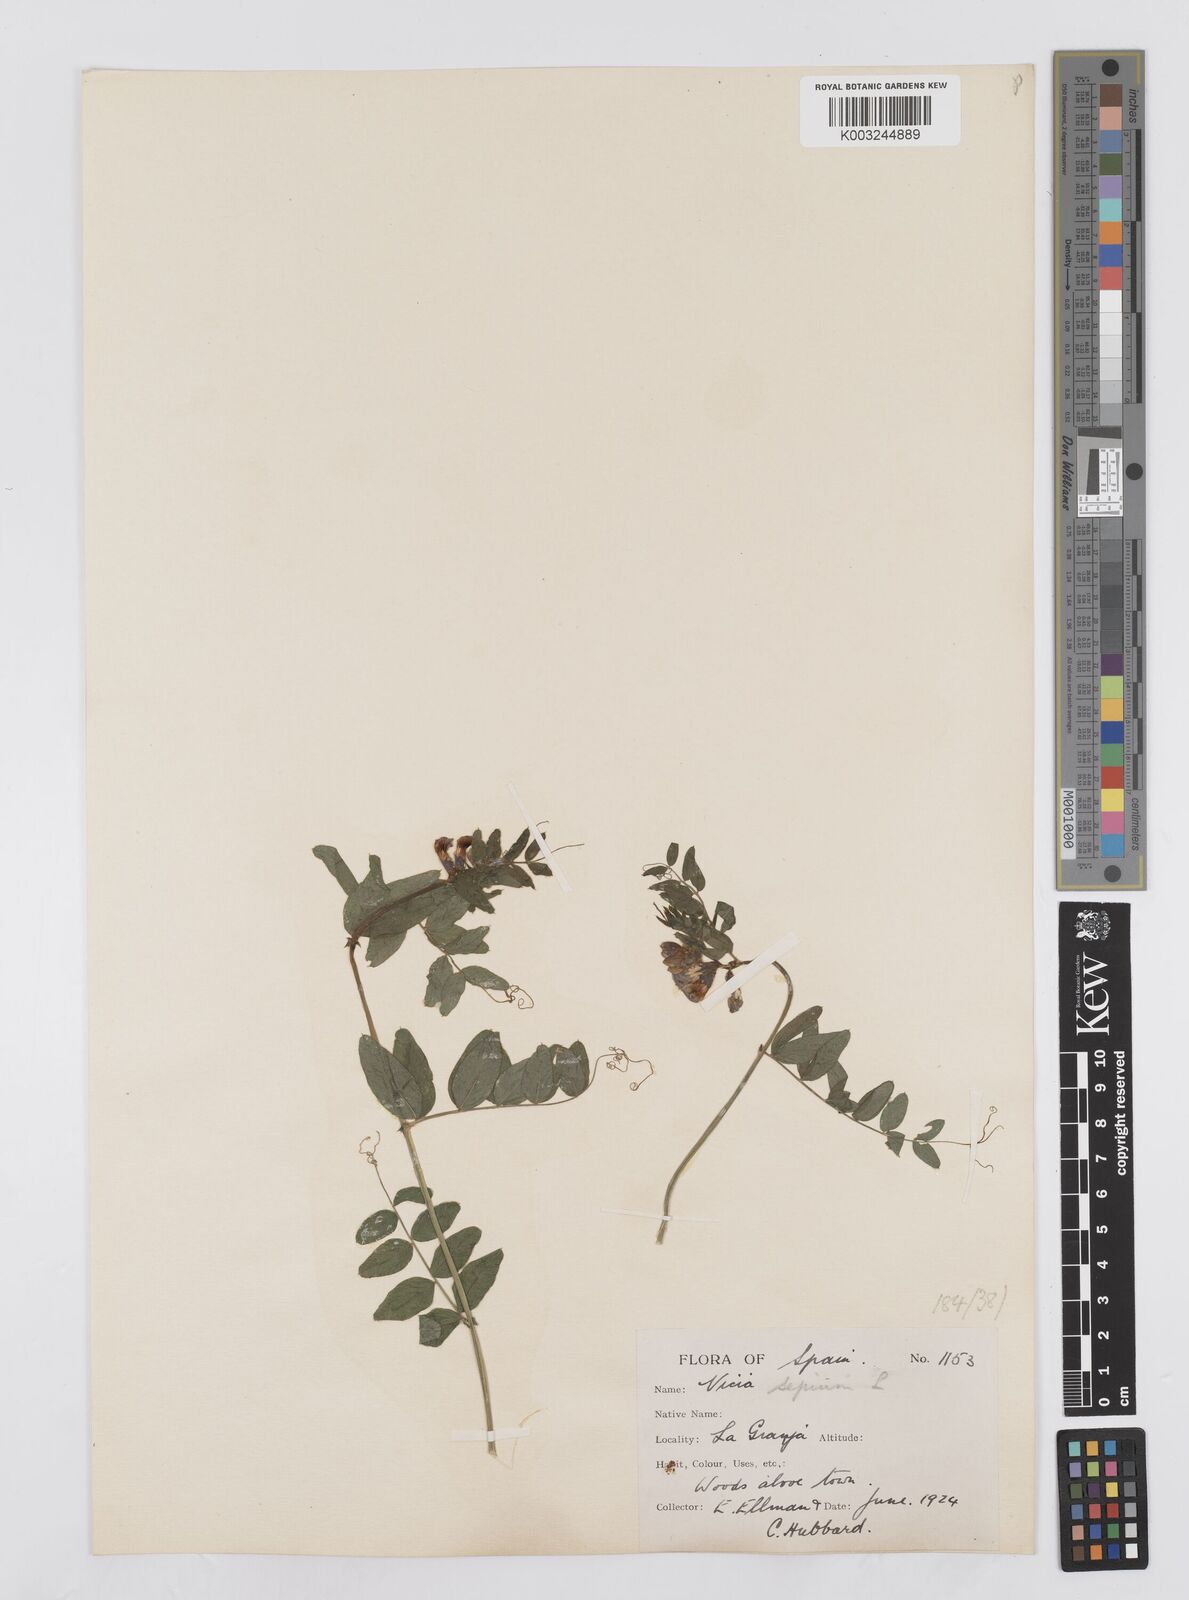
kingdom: Plantae
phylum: Tracheophyta
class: Magnoliopsida
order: Fabales
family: Fabaceae
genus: Vicia
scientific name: Vicia sepium
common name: Bush vetch
